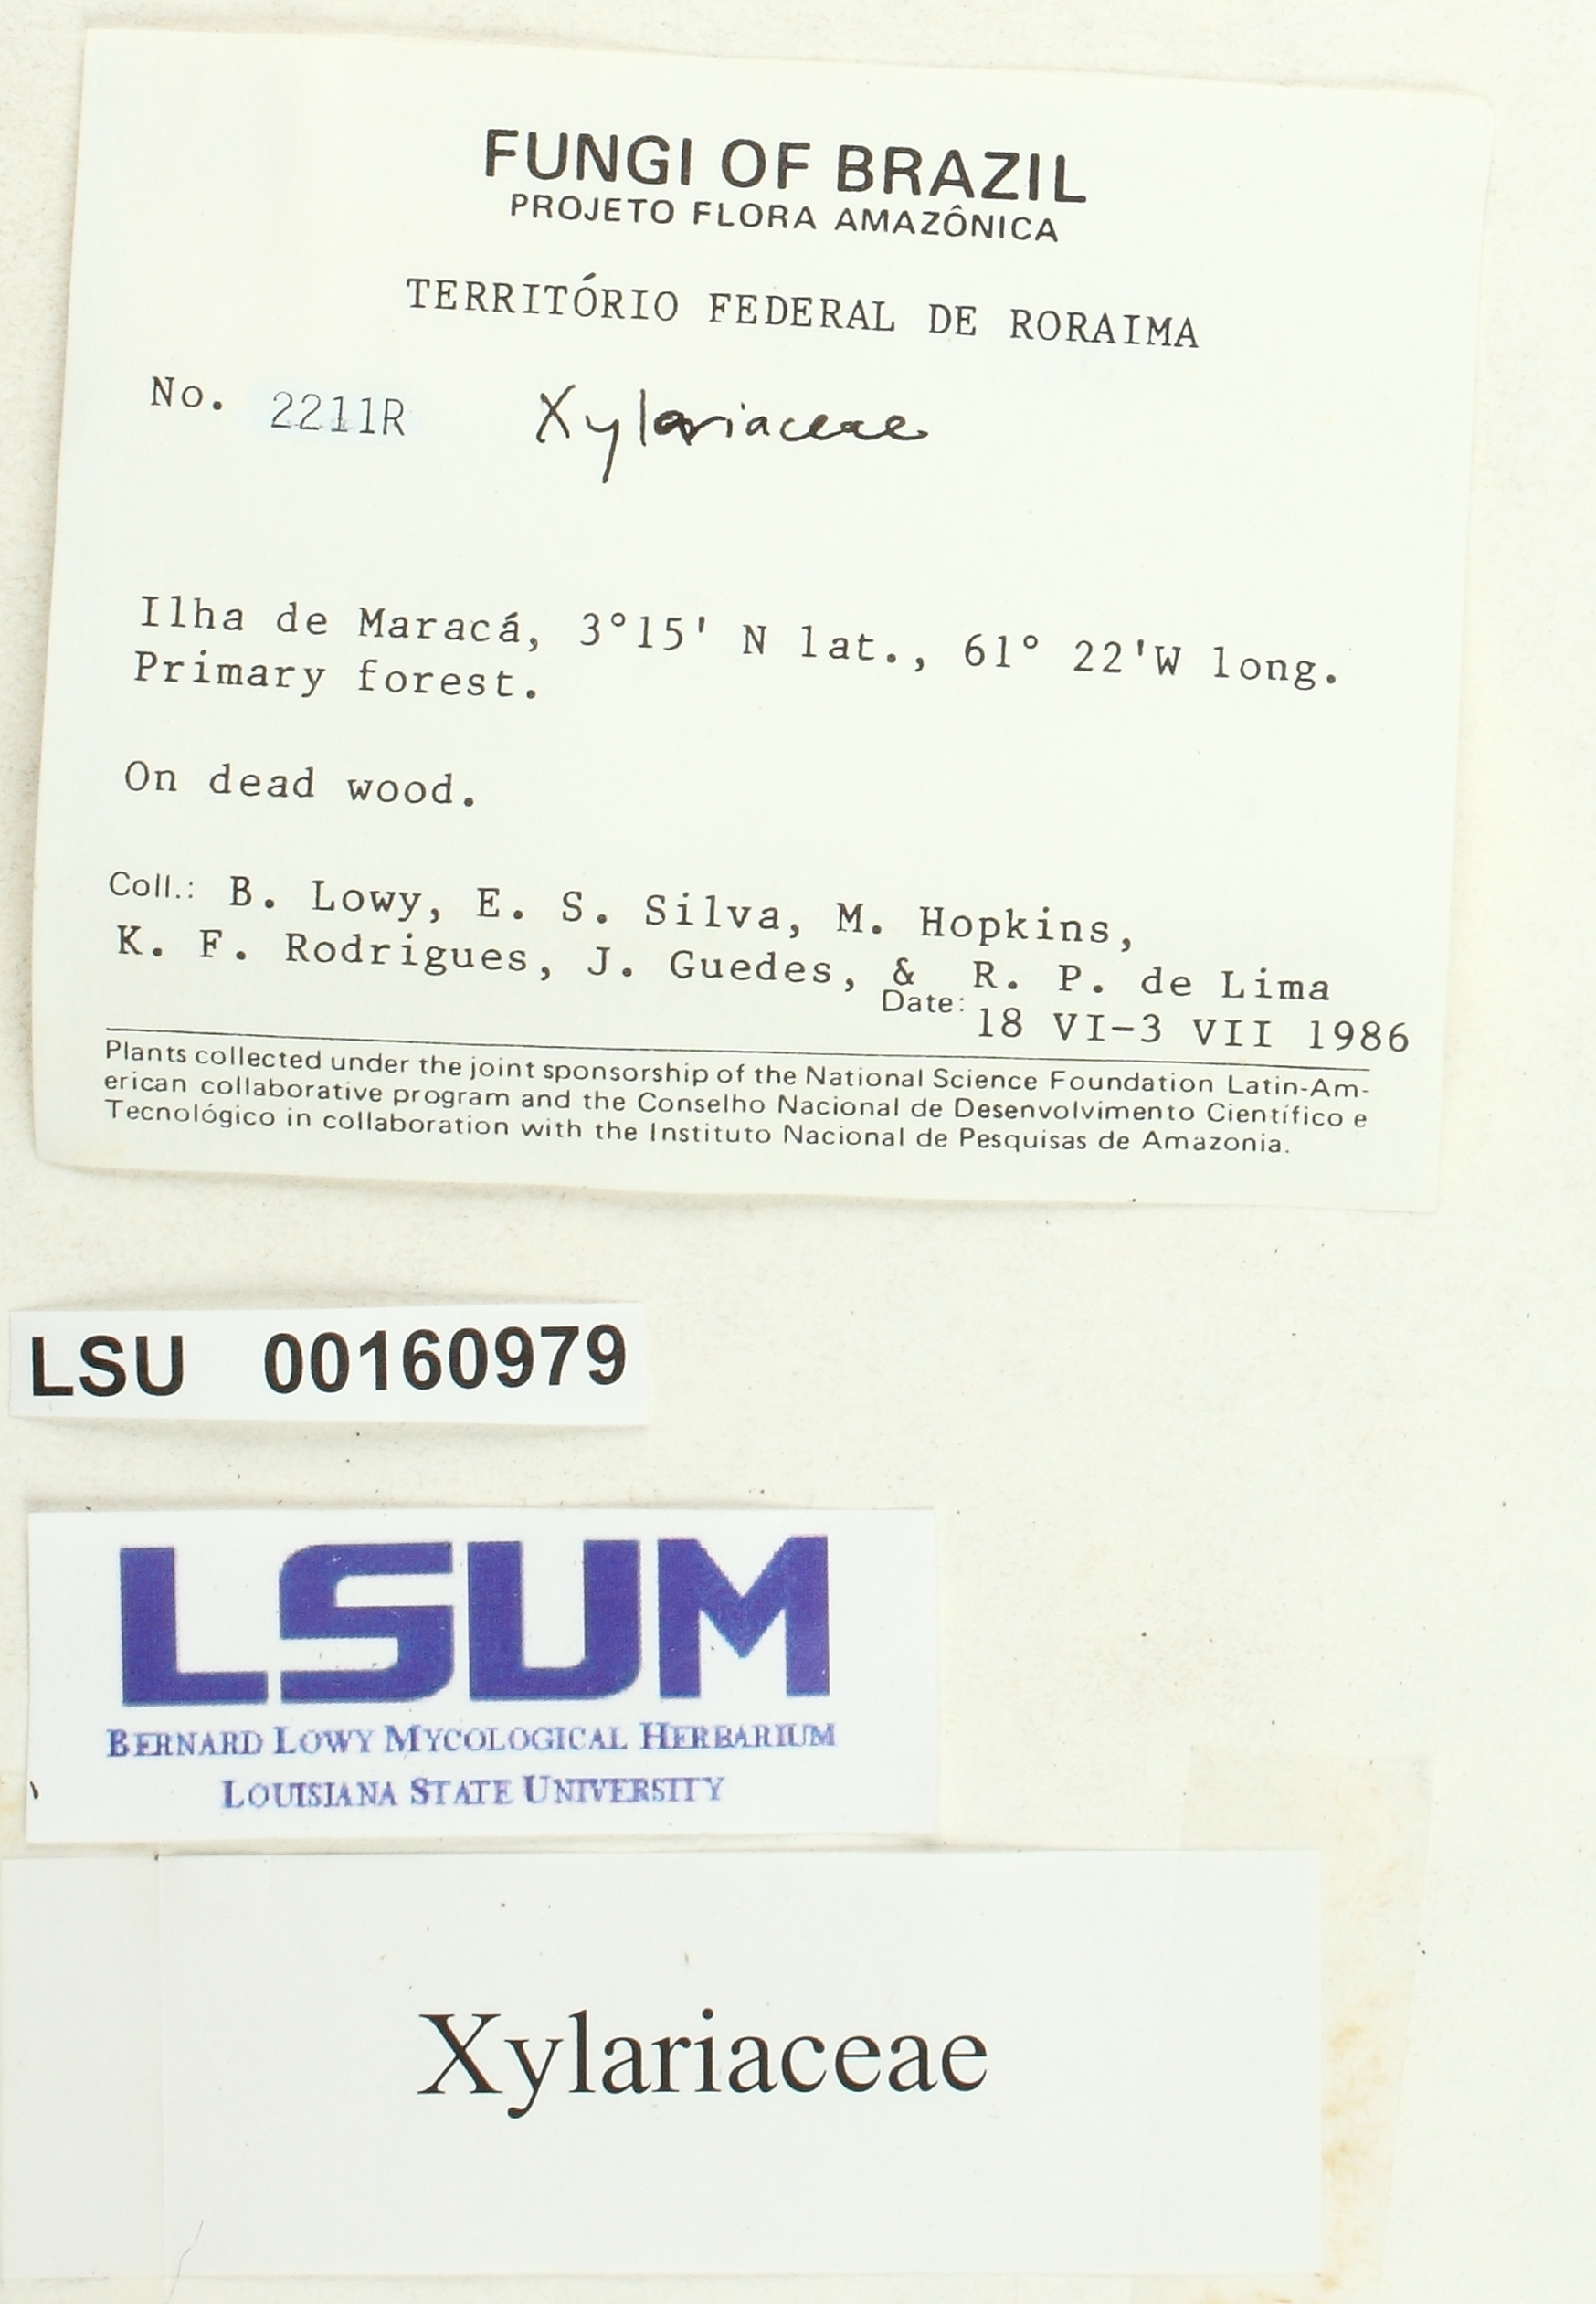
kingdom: Fungi
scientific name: Fungi
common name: Fungi
